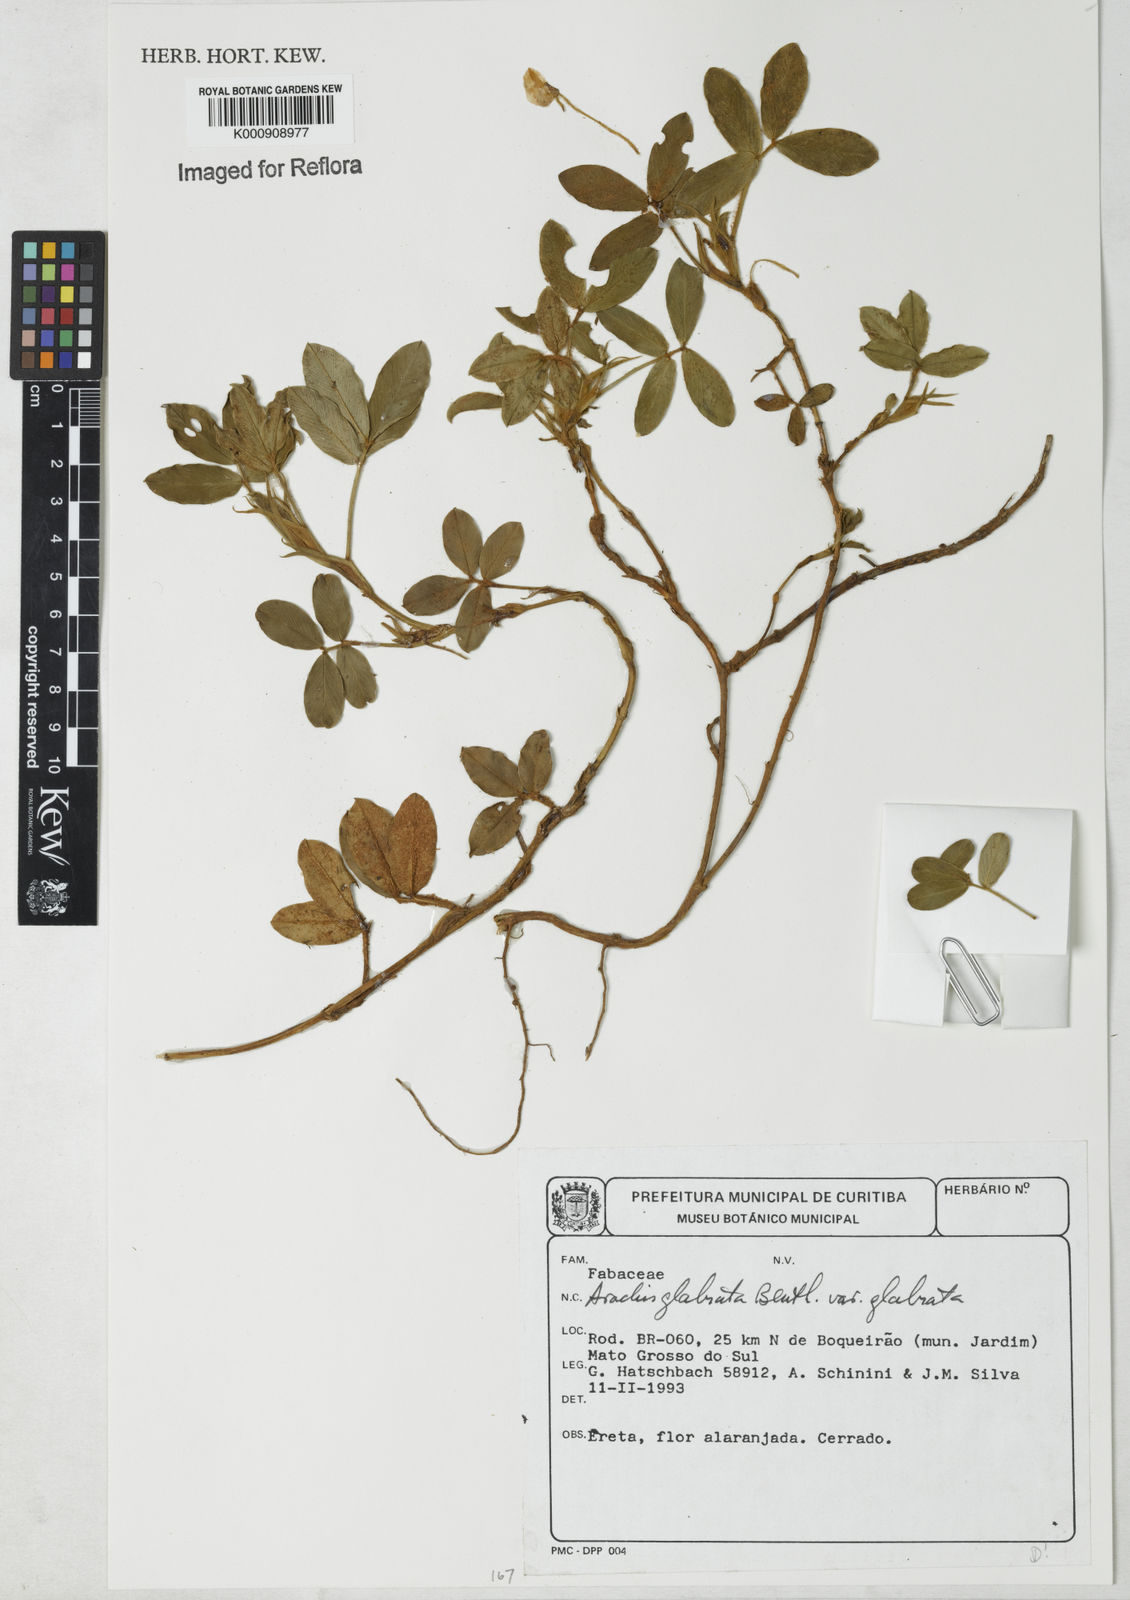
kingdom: Plantae
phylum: Tracheophyta
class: Magnoliopsida
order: Fabales
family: Fabaceae
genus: Arachis
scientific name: Arachis glabrata
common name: Rhizoma peanut
